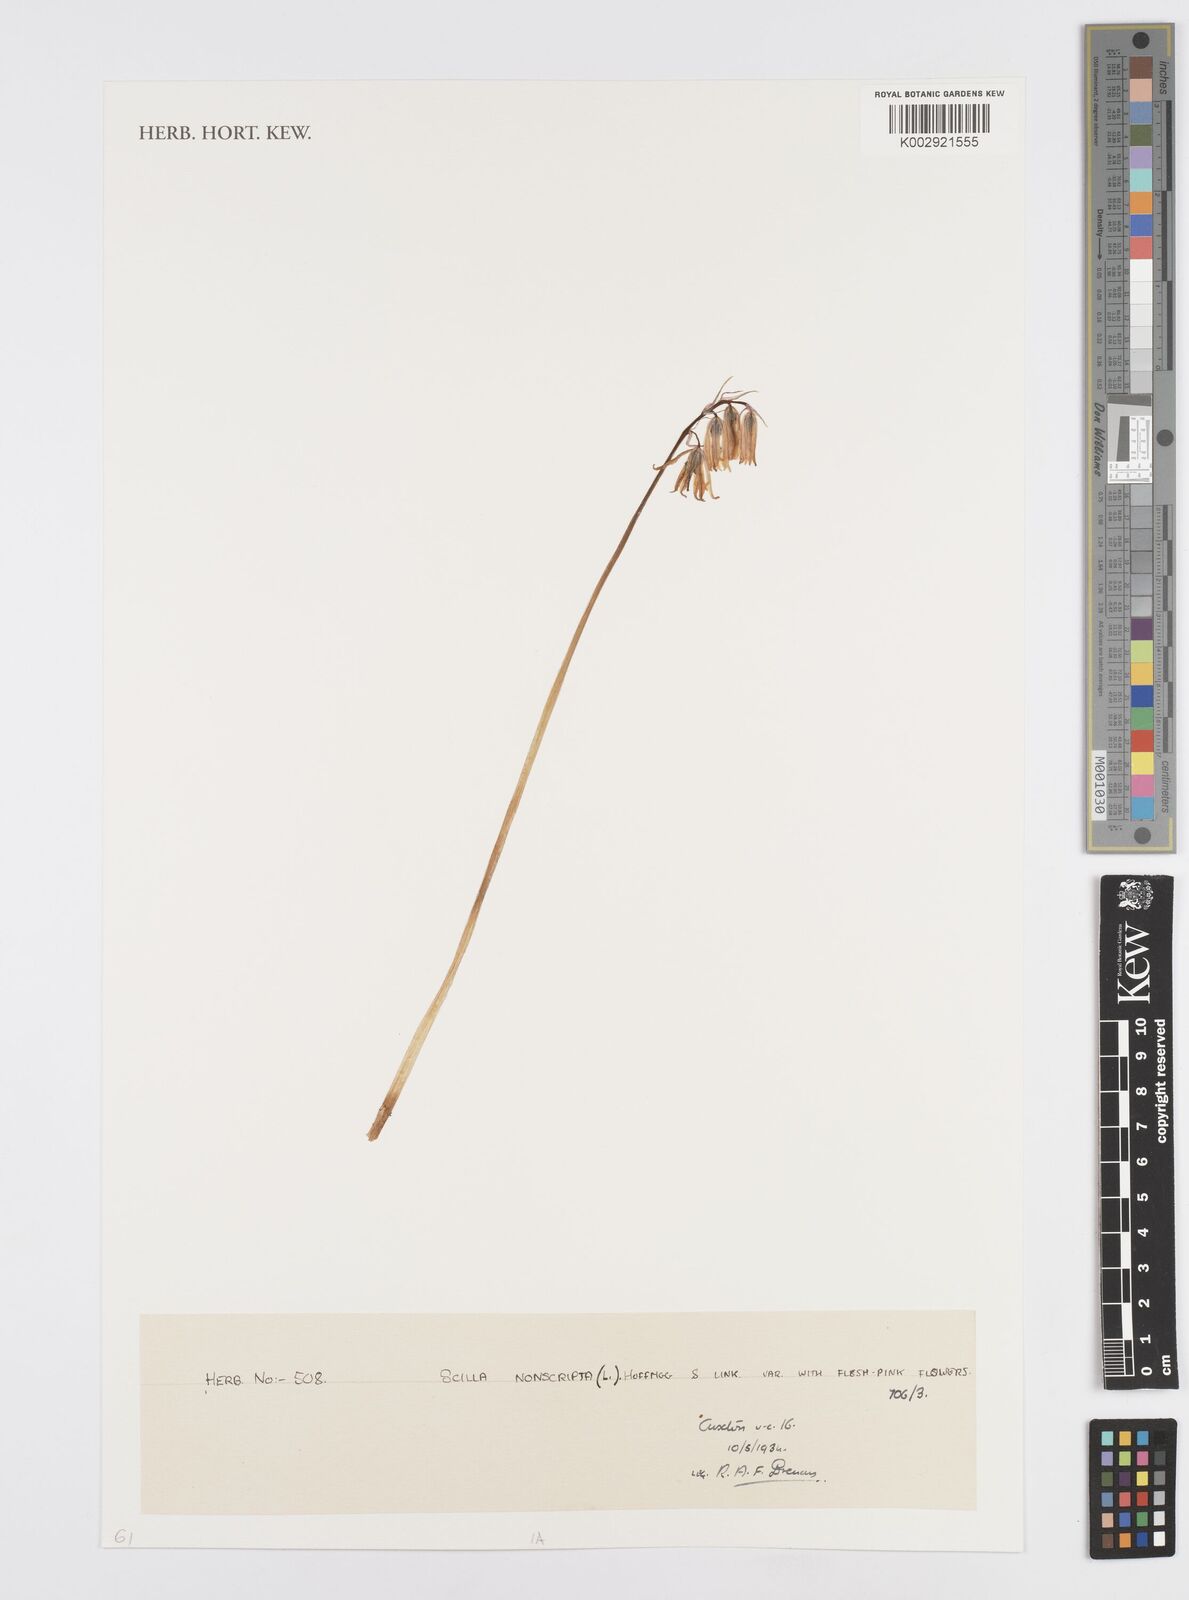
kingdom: Plantae
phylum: Tracheophyta
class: Liliopsida
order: Asparagales
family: Asparagaceae
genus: Hyacinthoides
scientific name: Hyacinthoides non-scripta
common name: Bluebell
